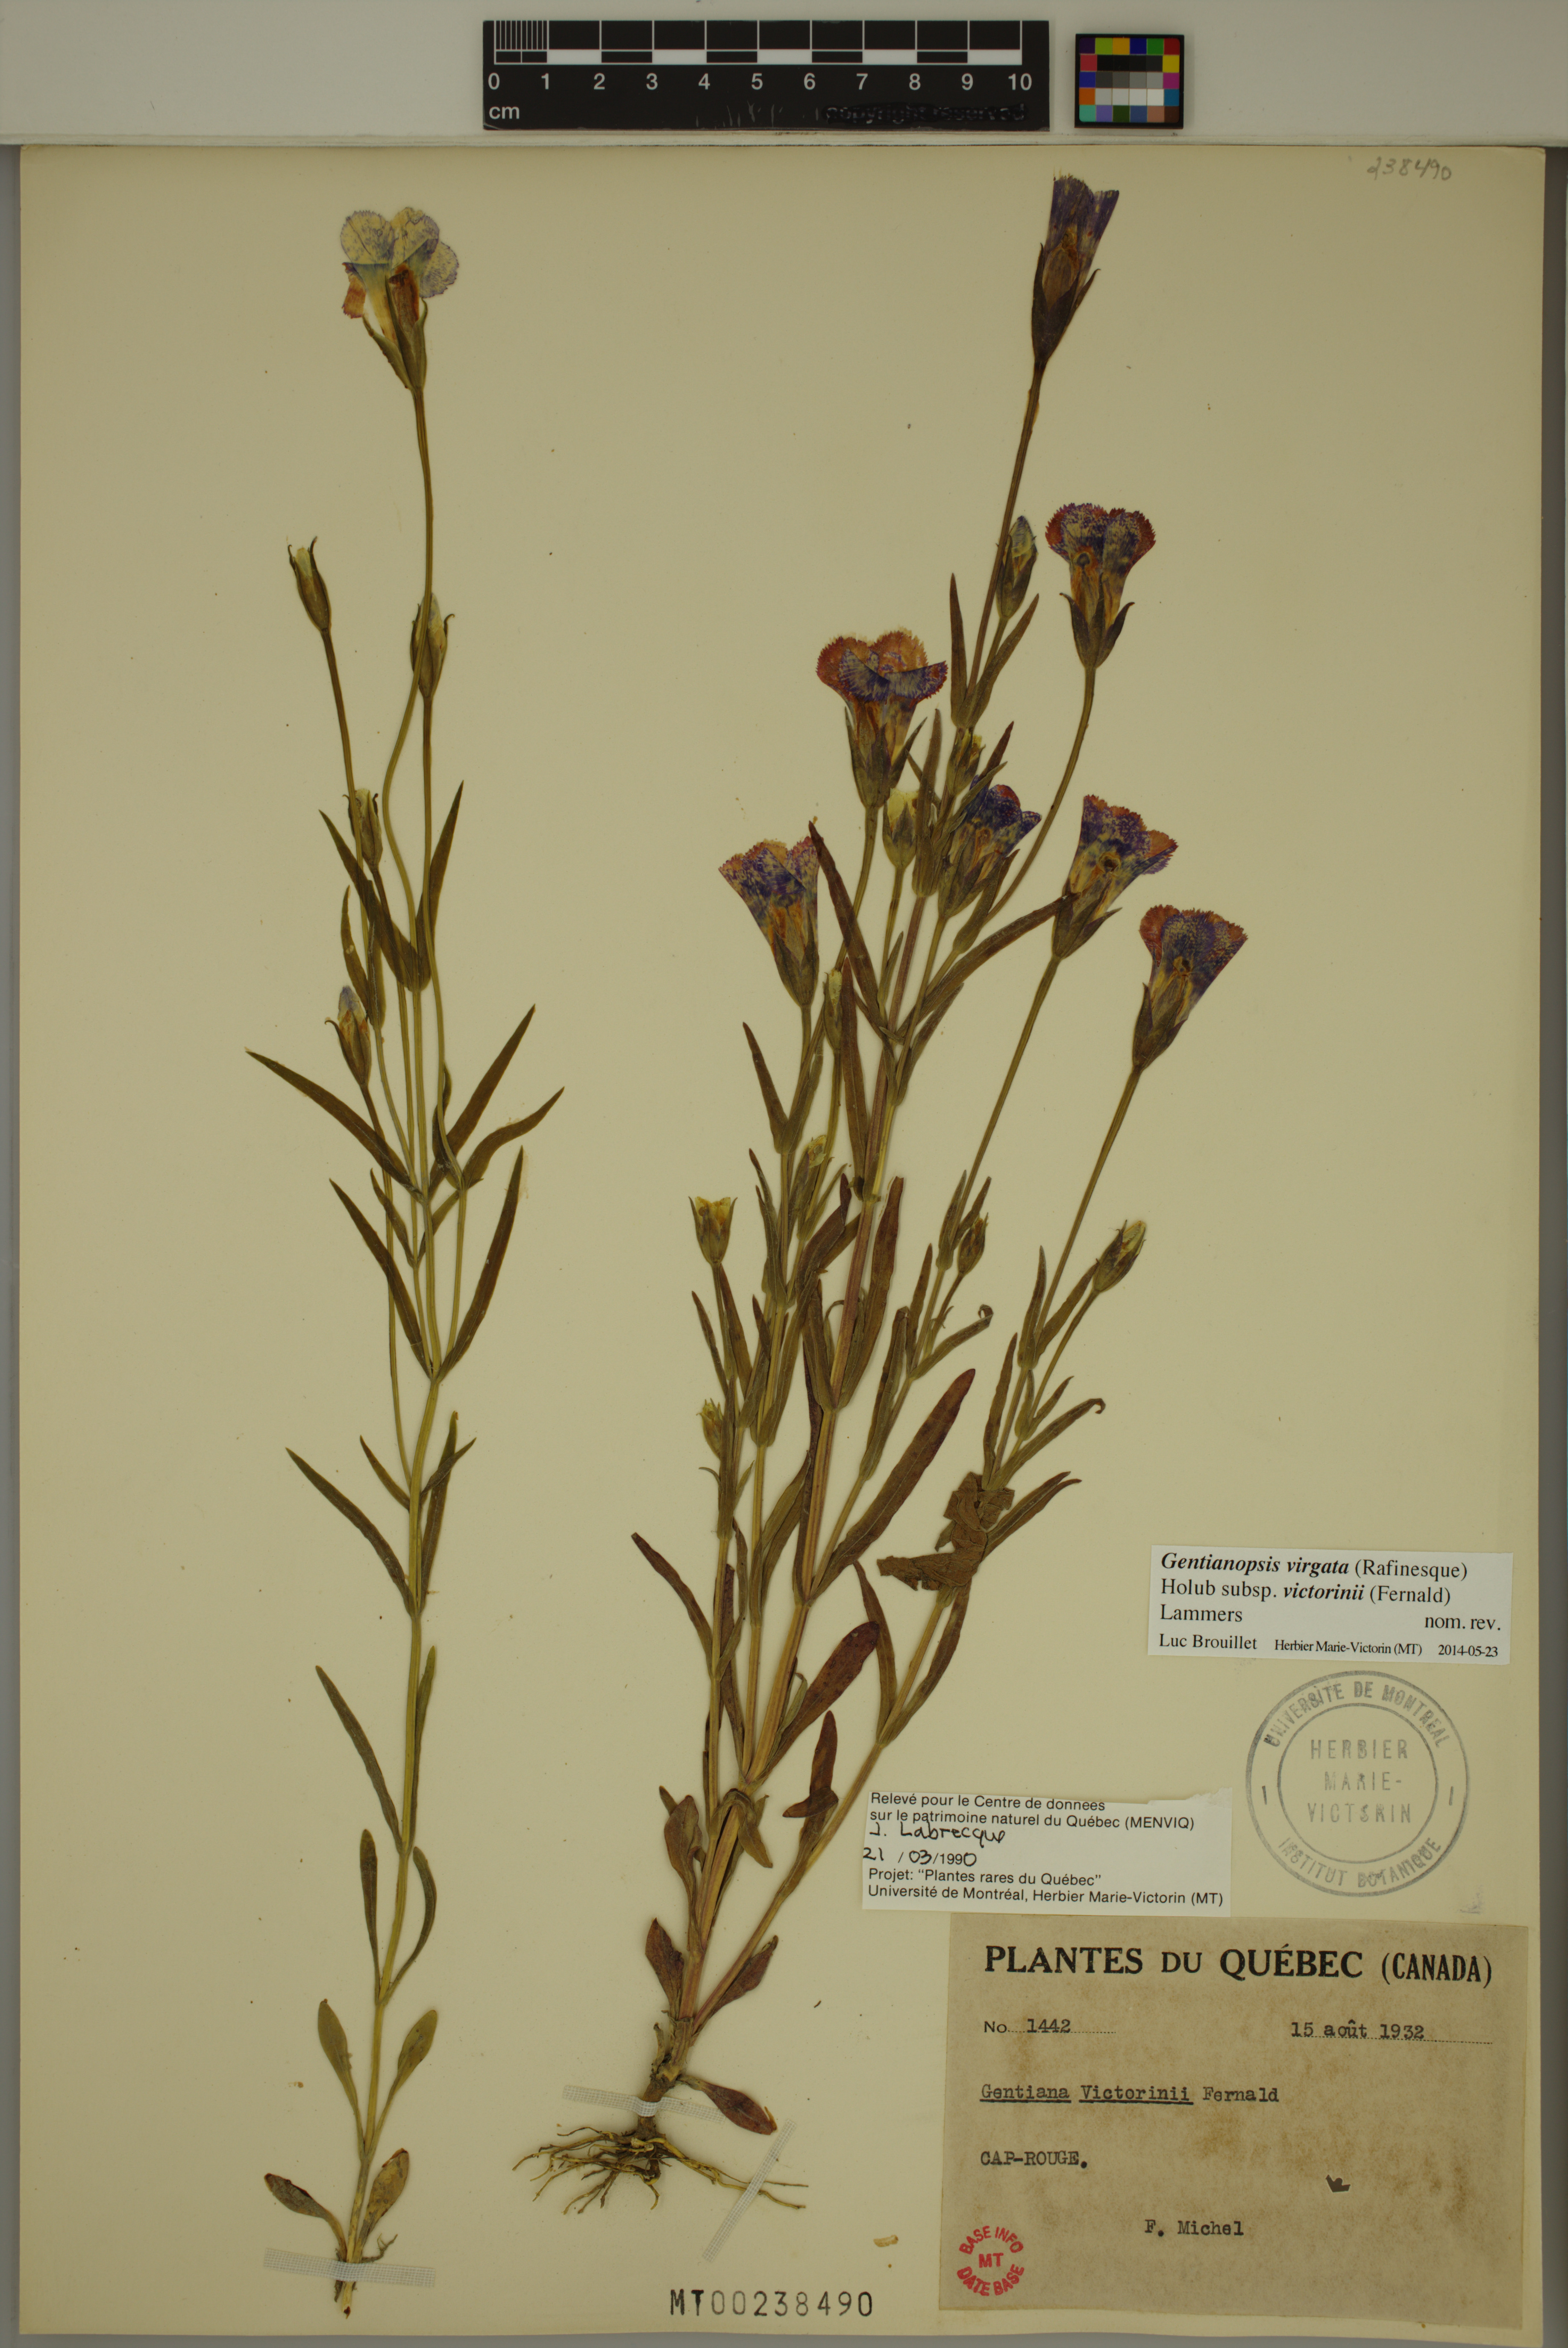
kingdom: Plantae
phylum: Tracheophyta
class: Magnoliopsida
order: Gentianales
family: Gentianaceae
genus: Gentianopsis
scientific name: Gentianopsis victorinii
